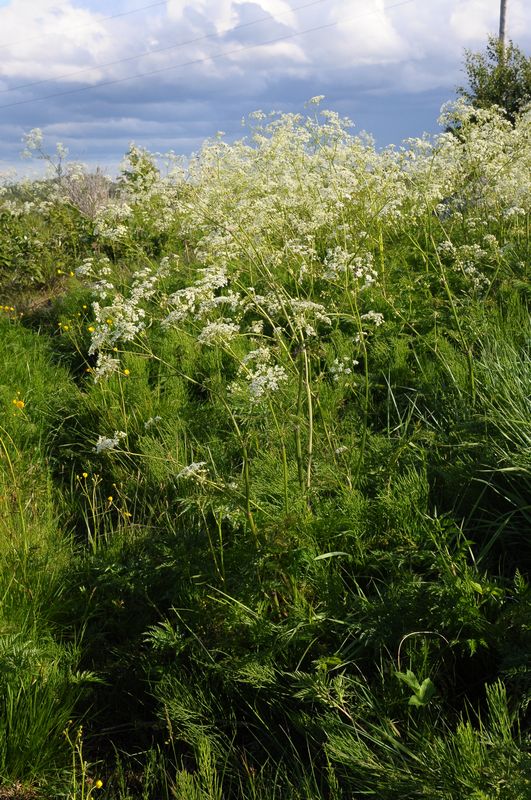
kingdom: Plantae
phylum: Tracheophyta
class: Magnoliopsida
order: Apiales
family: Apiaceae
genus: Anthriscus
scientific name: Anthriscus sylvestris
